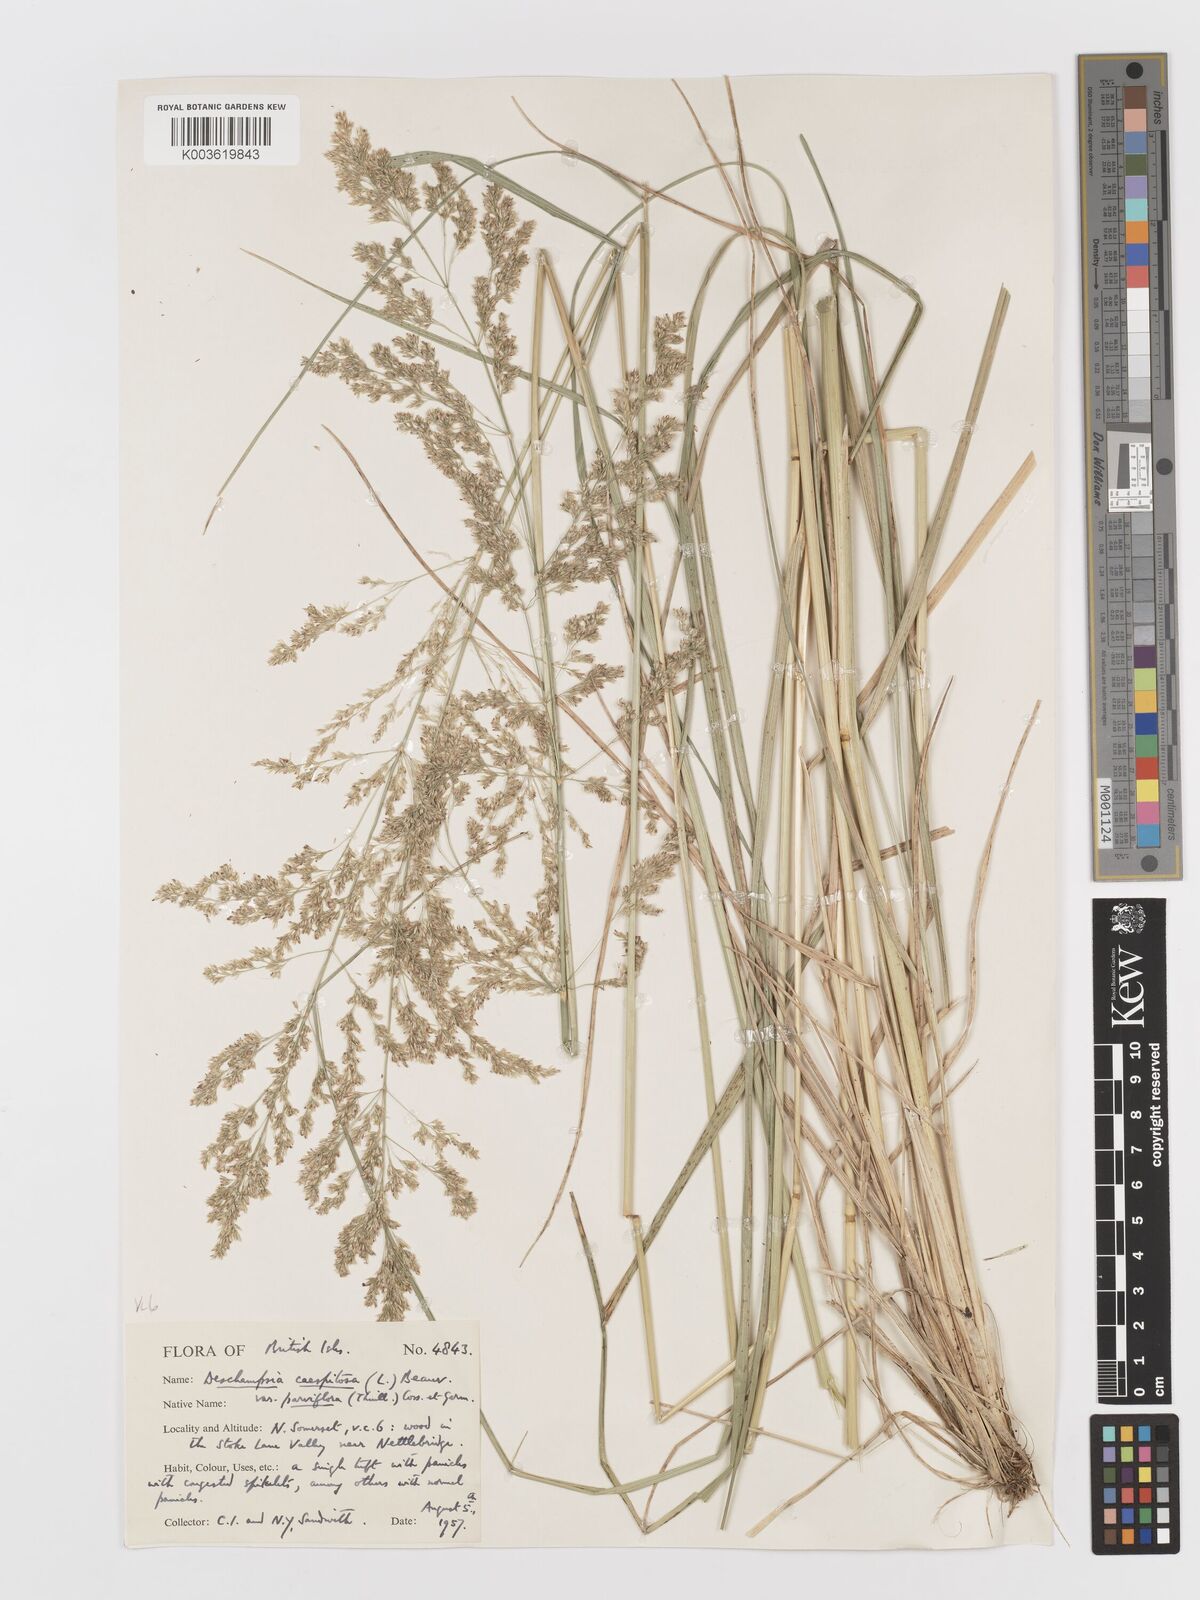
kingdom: Plantae
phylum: Tracheophyta
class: Liliopsida
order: Poales
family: Poaceae
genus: Deschampsia
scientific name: Deschampsia cespitosa
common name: Tufted hair-grass
